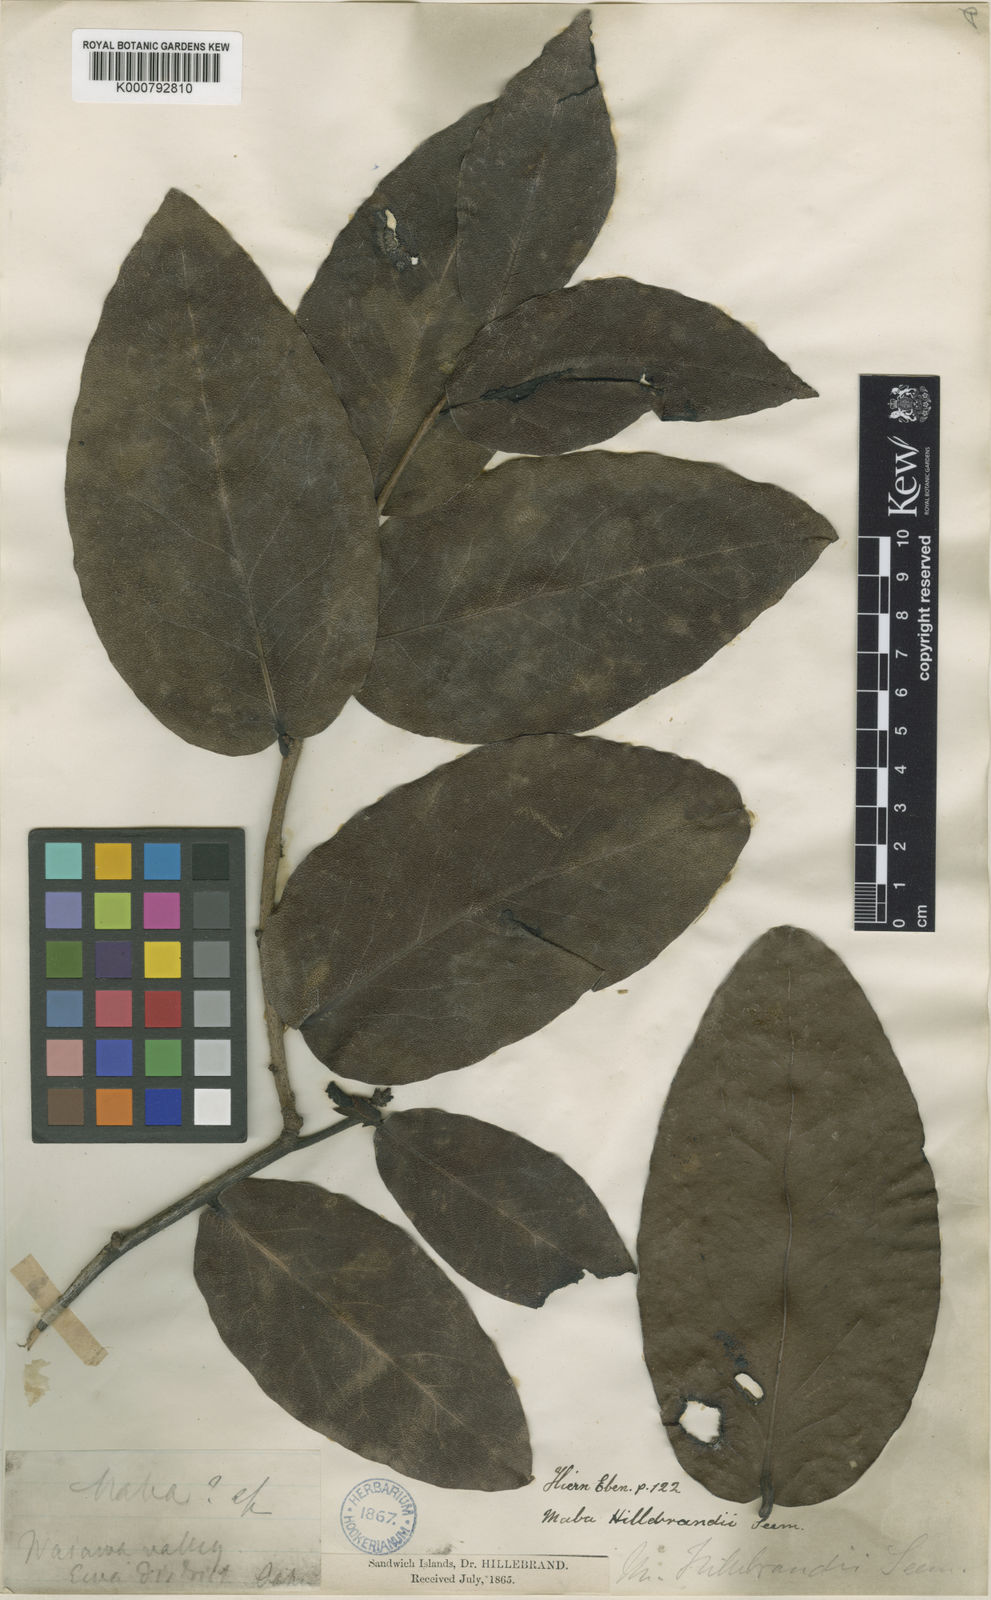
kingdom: Plantae
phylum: Tracheophyta
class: Magnoliopsida
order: Ericales
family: Ebenaceae
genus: Diospyros
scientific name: Diospyros vitiensis
